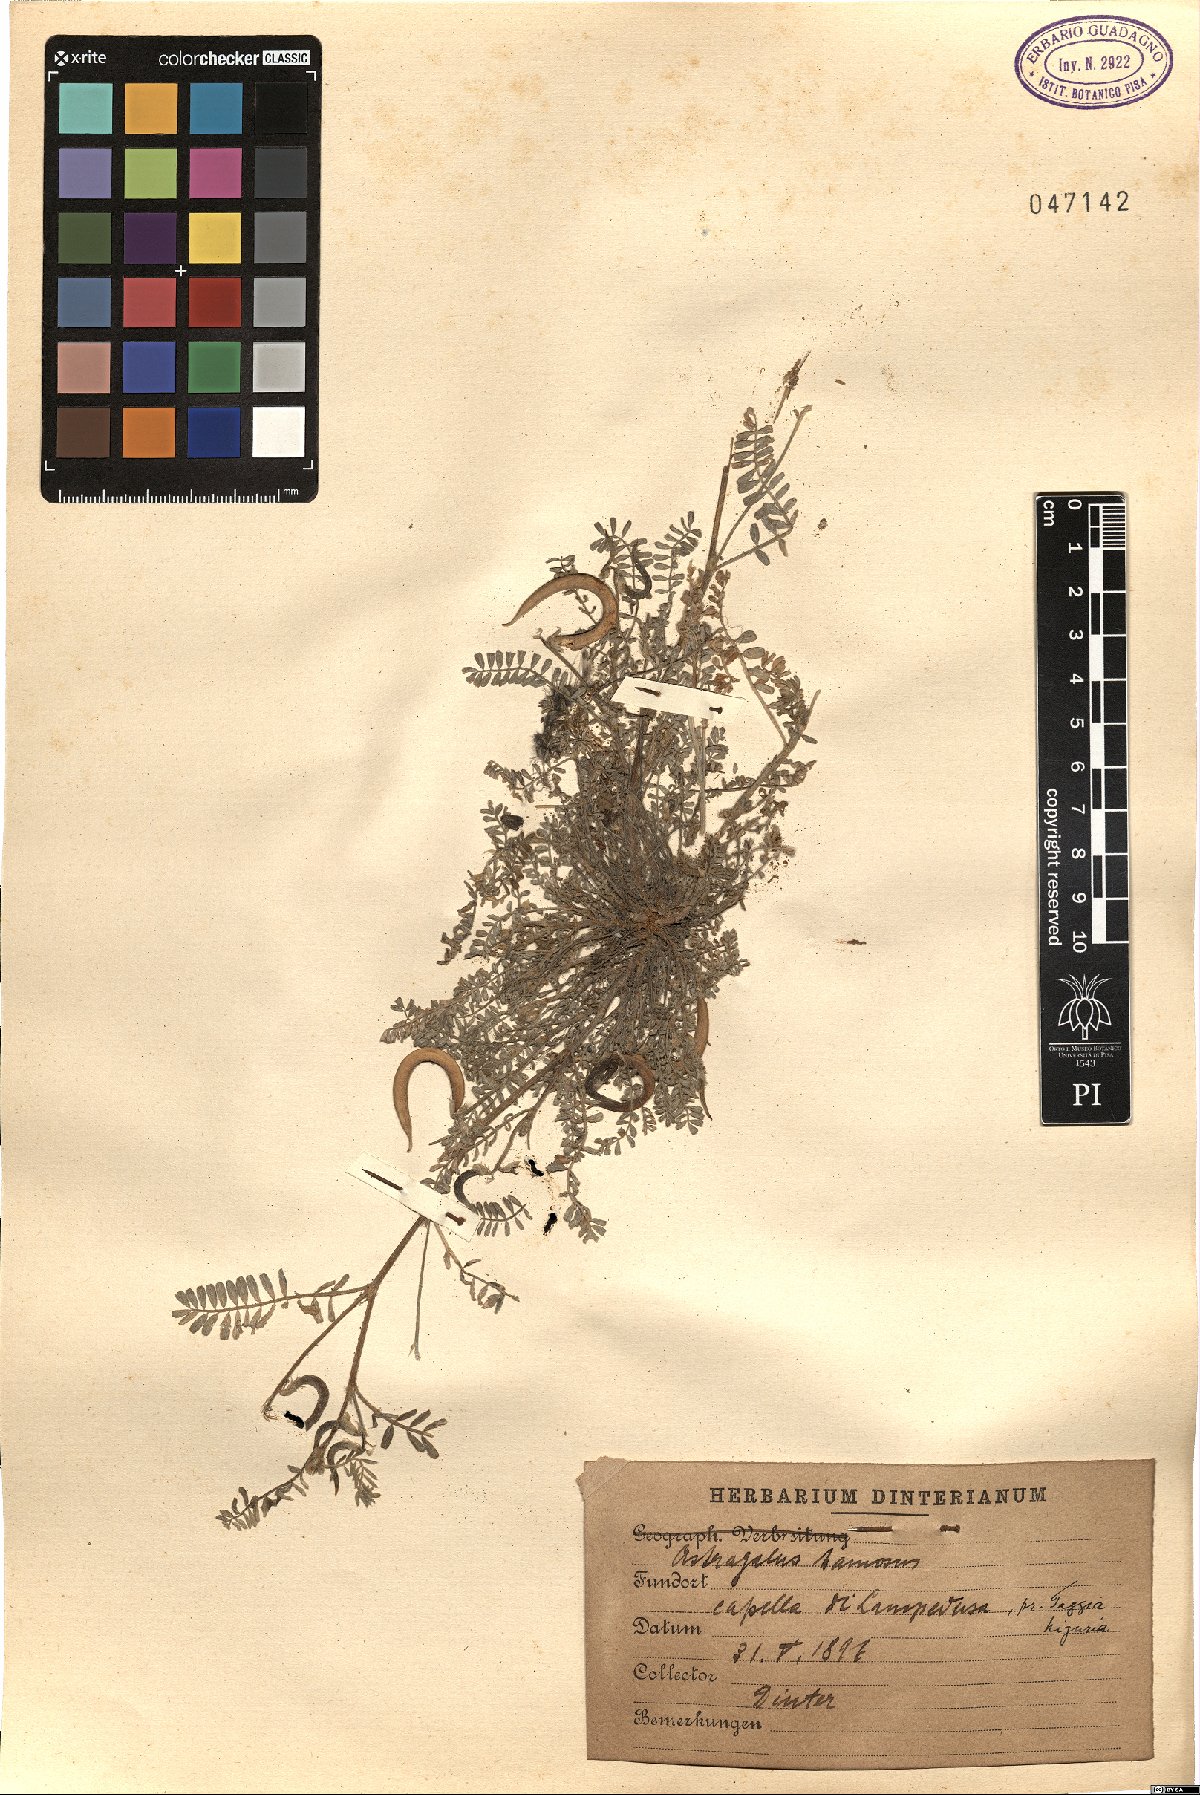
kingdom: Plantae
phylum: Tracheophyta
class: Magnoliopsida
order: Fabales
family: Fabaceae
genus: Astragalus
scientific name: Astragalus hamosus
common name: European milkvetch
